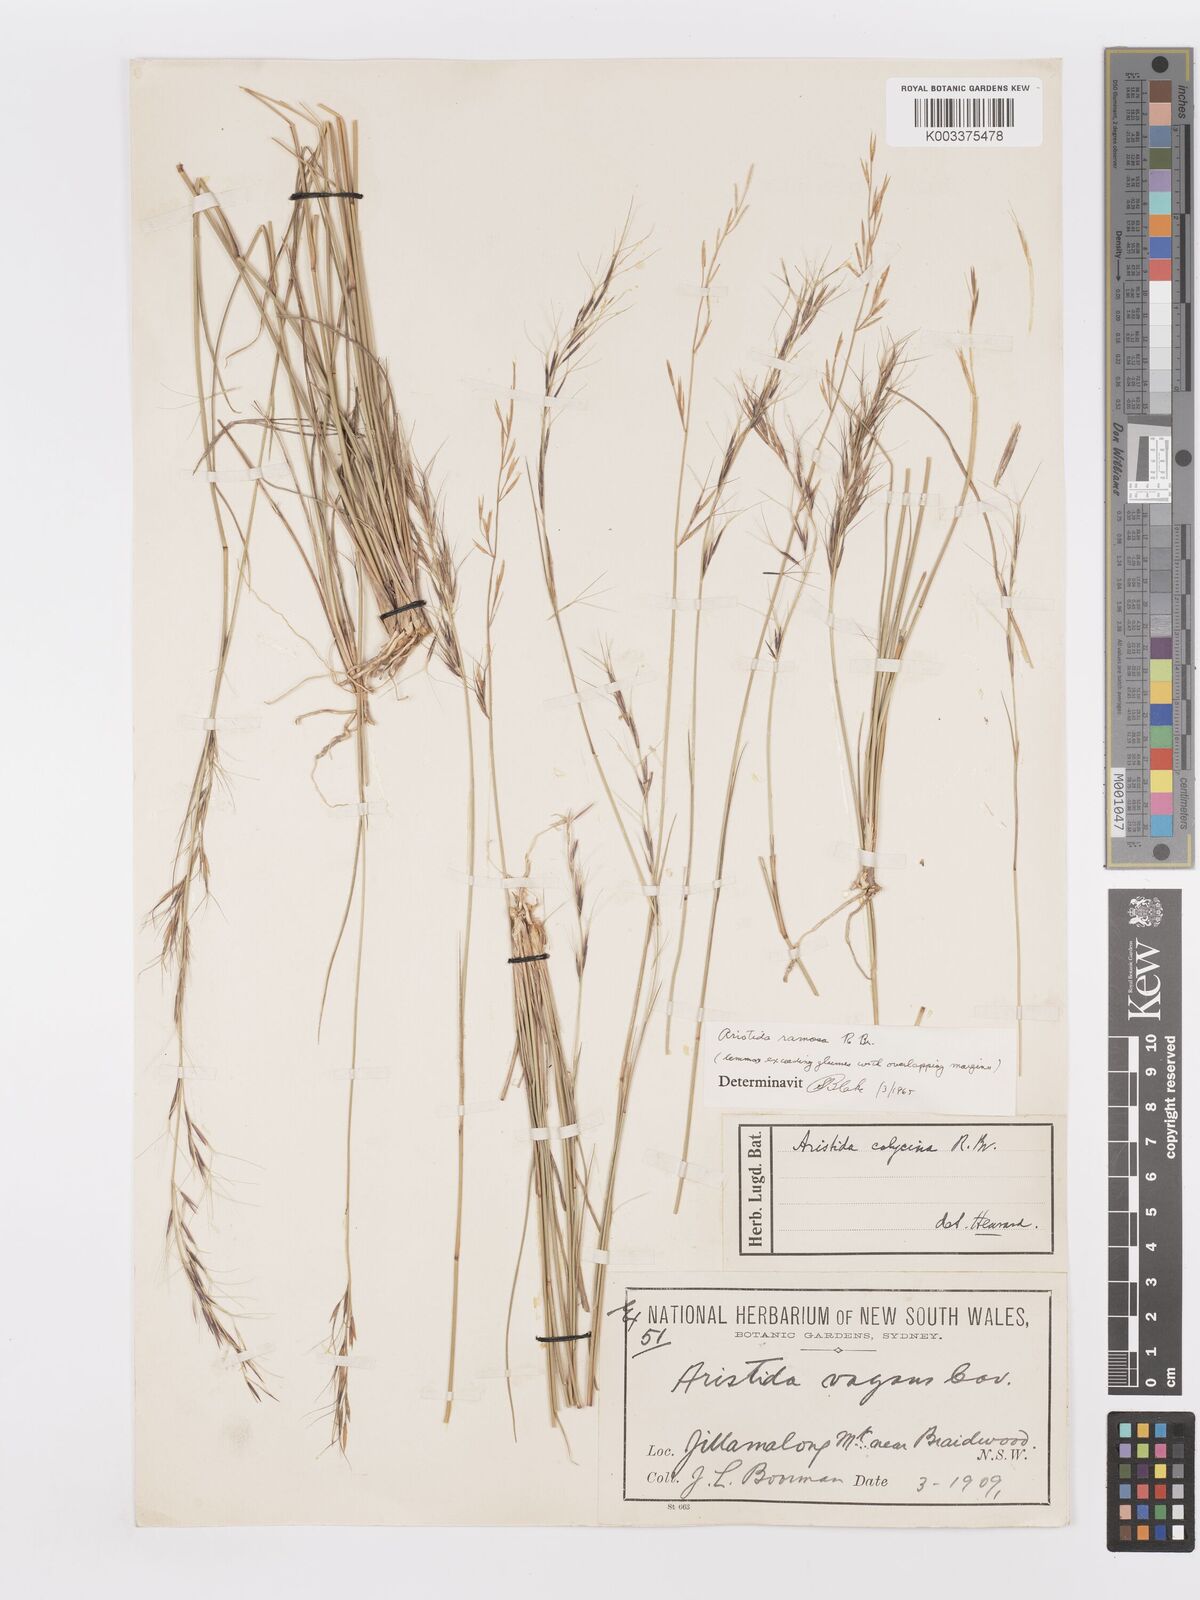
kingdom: Plantae
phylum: Tracheophyta
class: Liliopsida
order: Poales
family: Poaceae
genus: Aristida
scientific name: Aristida ramosa
